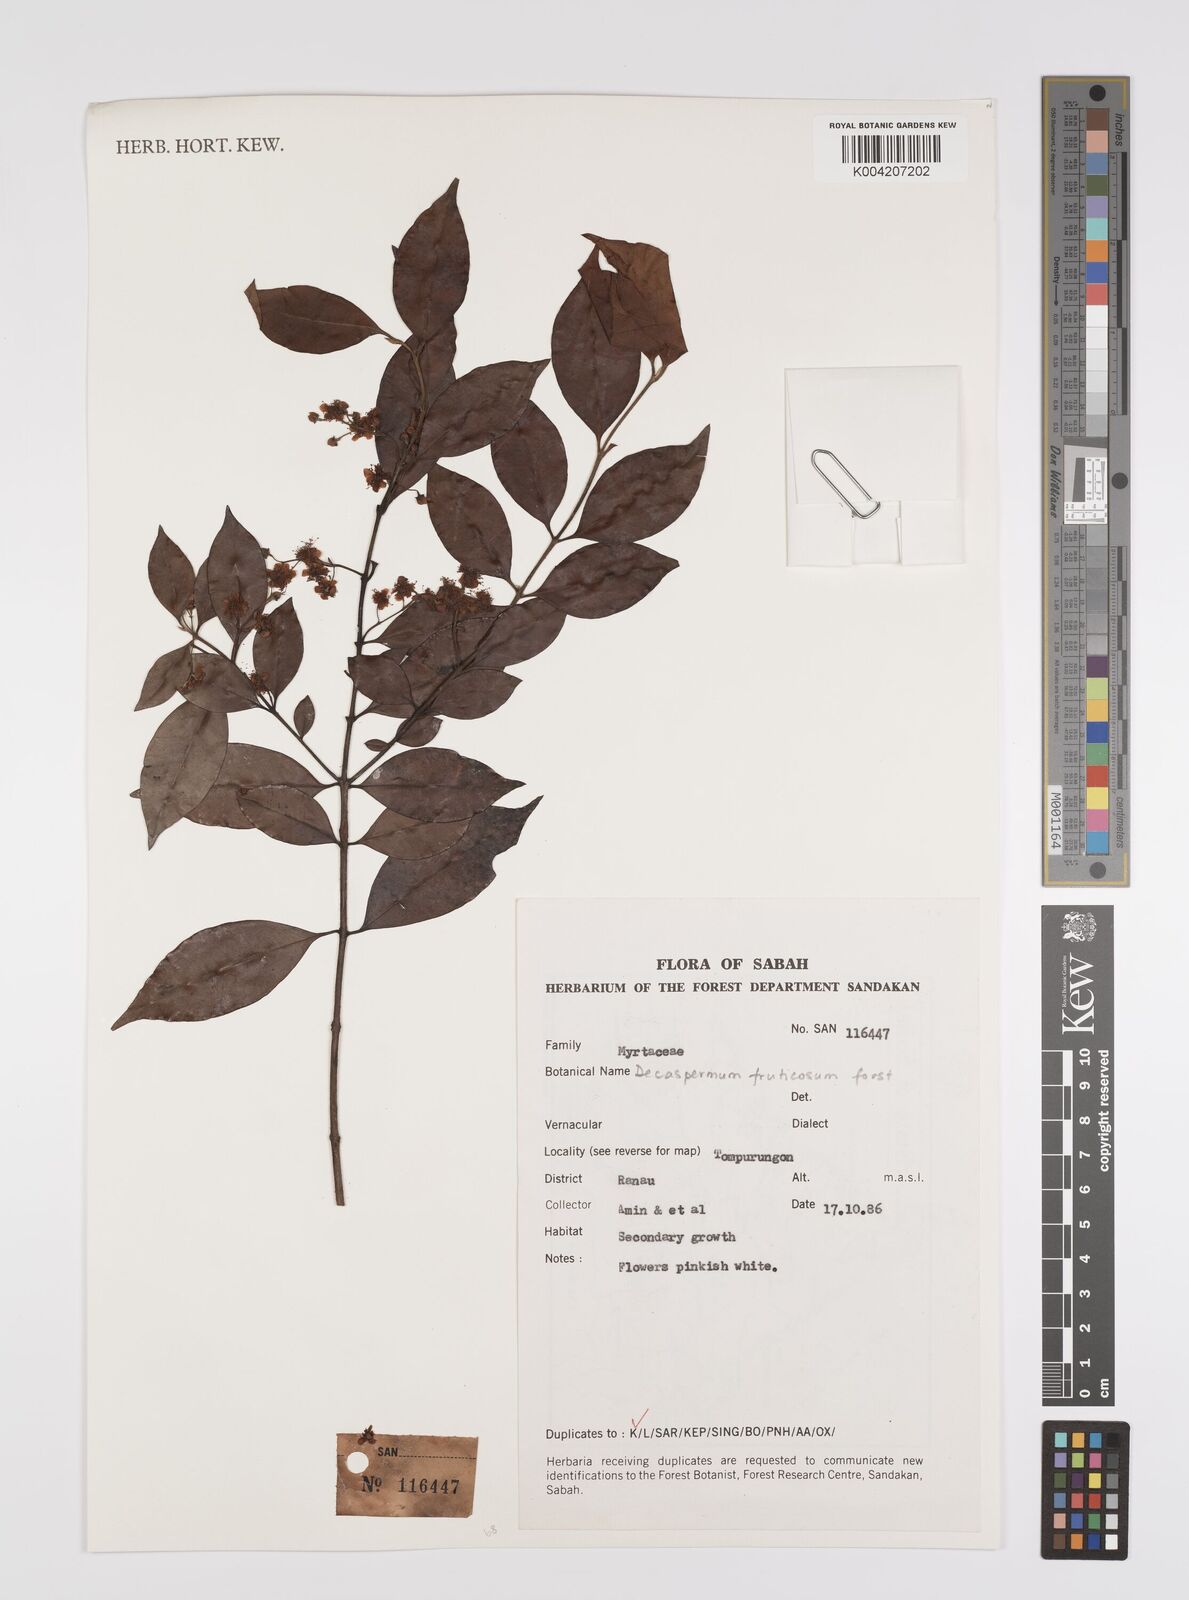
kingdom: Plantae
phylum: Tracheophyta
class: Magnoliopsida
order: Myrtales
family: Myrtaceae
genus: Decaspermum
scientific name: Decaspermum parviflorum
